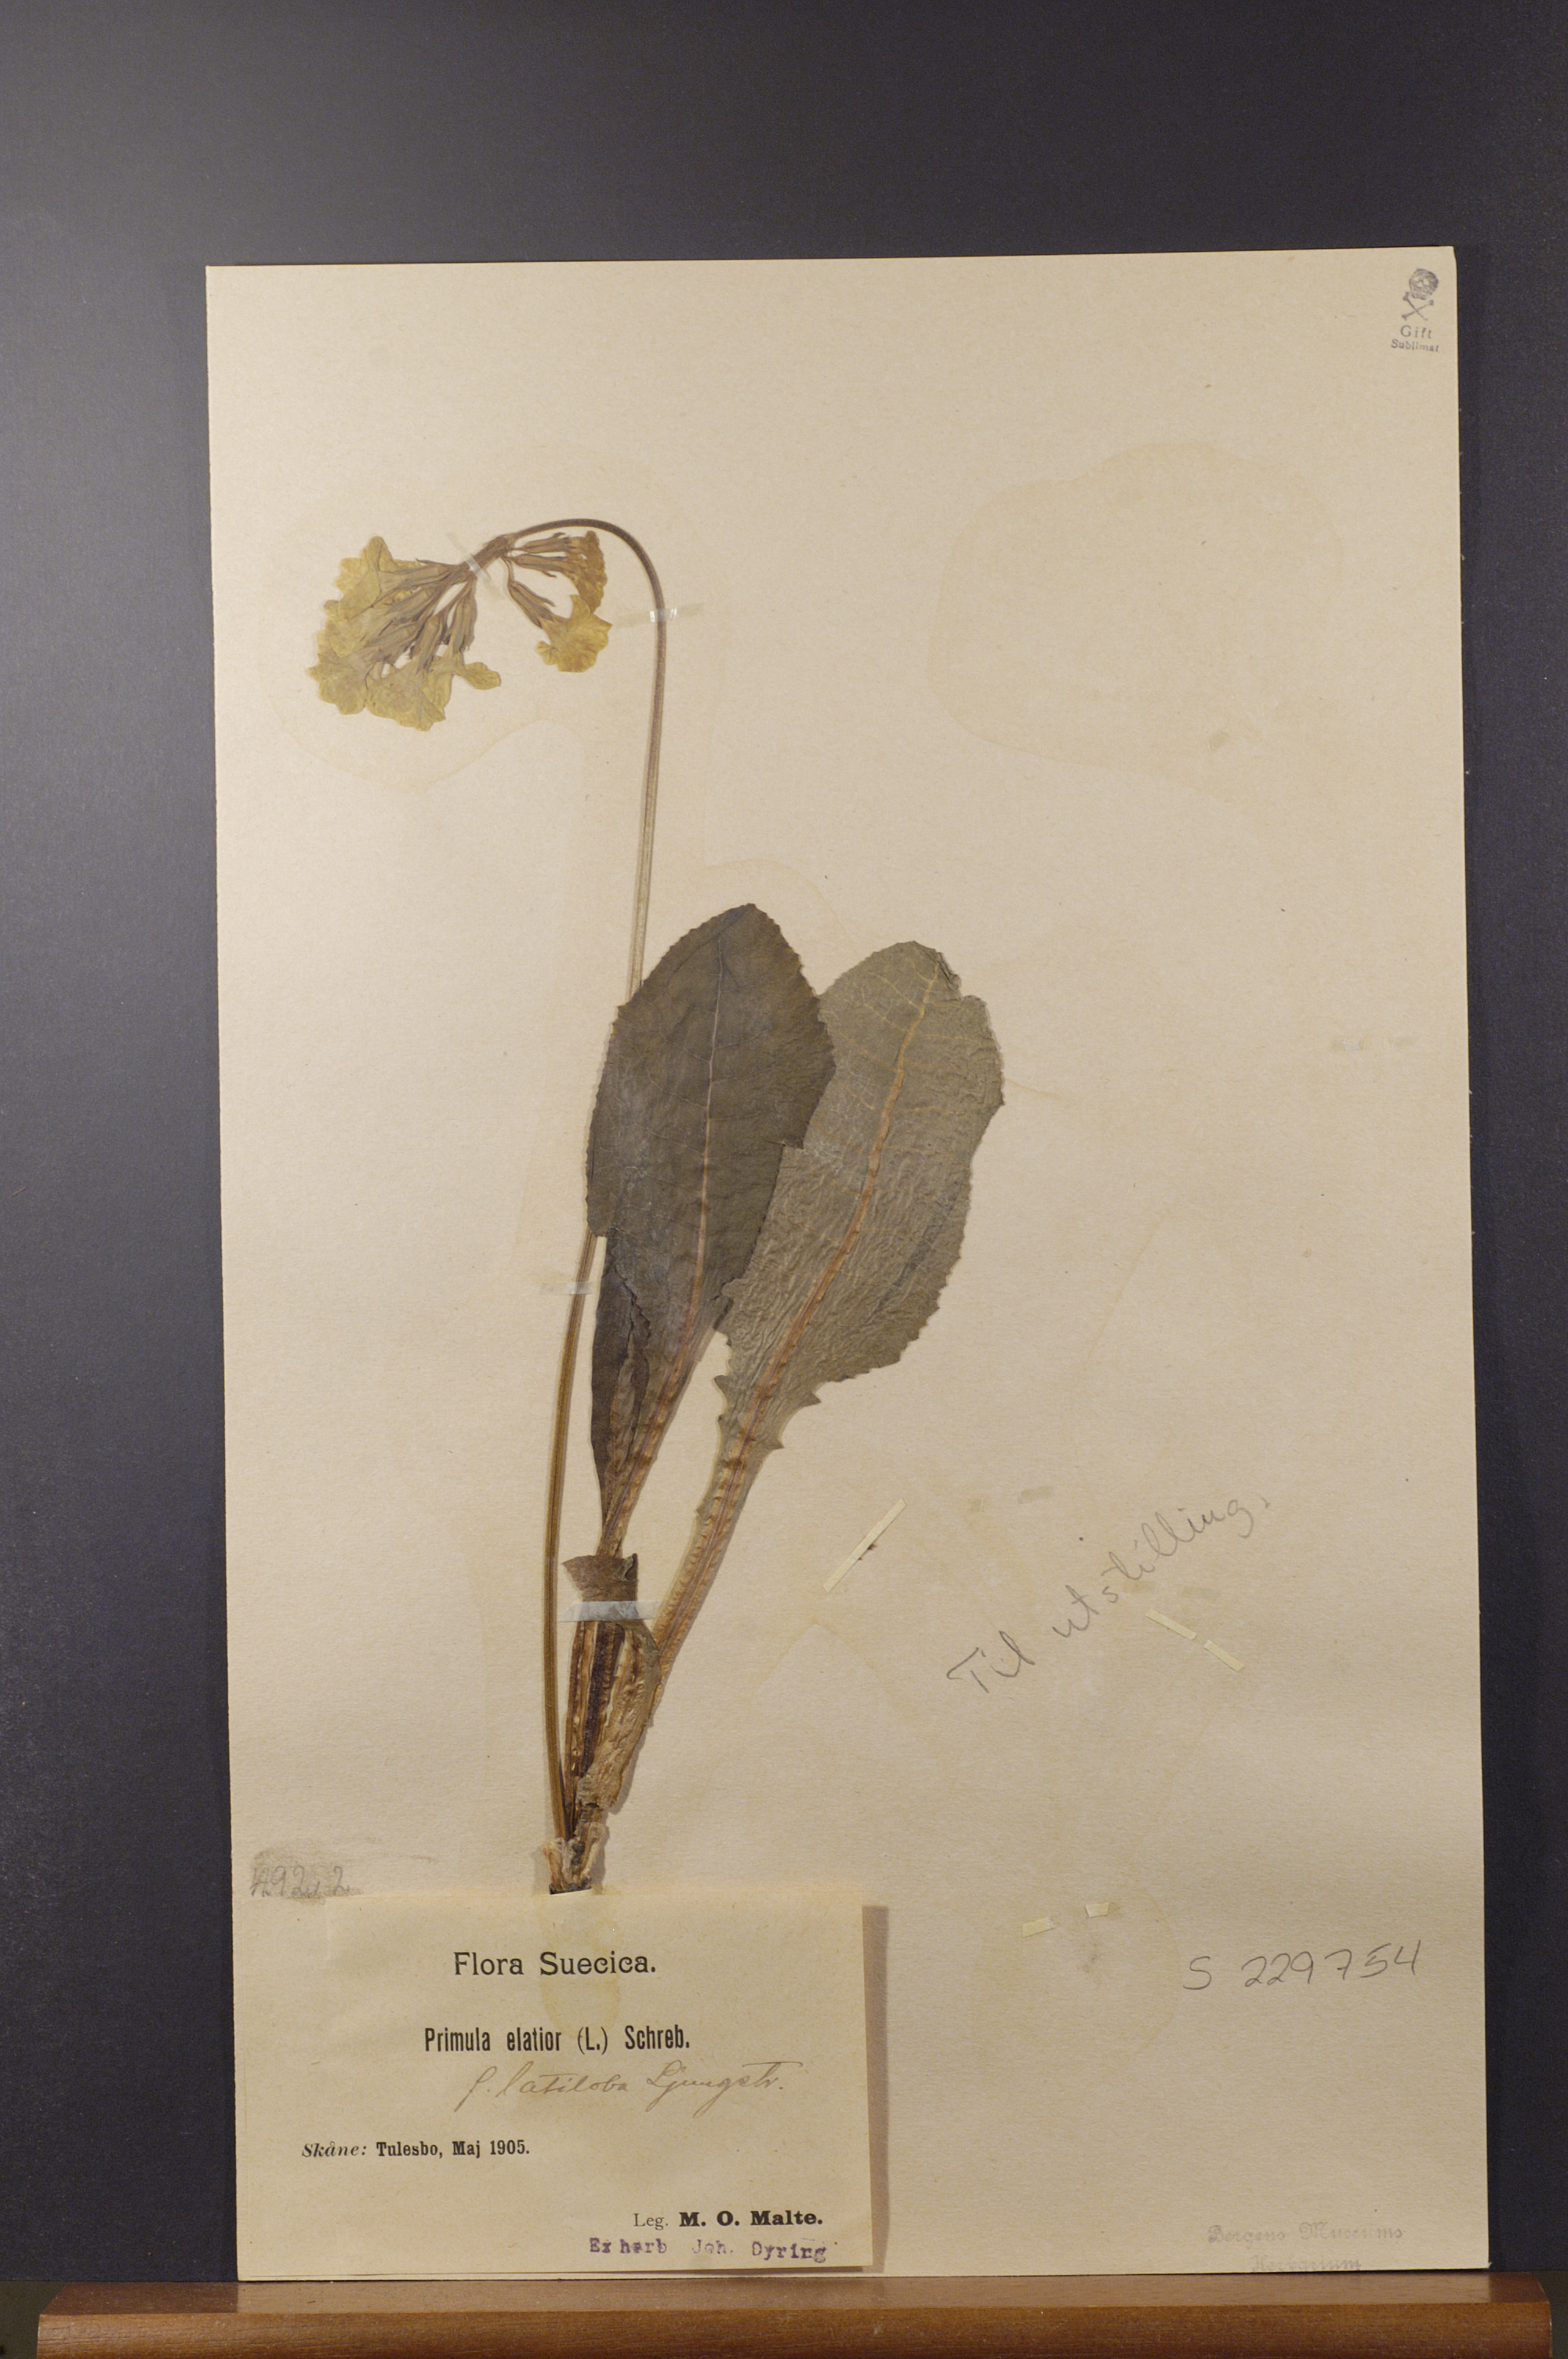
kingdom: Plantae
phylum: Tracheophyta
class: Magnoliopsida
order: Ericales
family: Primulaceae
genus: Primula
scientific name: Primula elatior
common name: Oxlip
